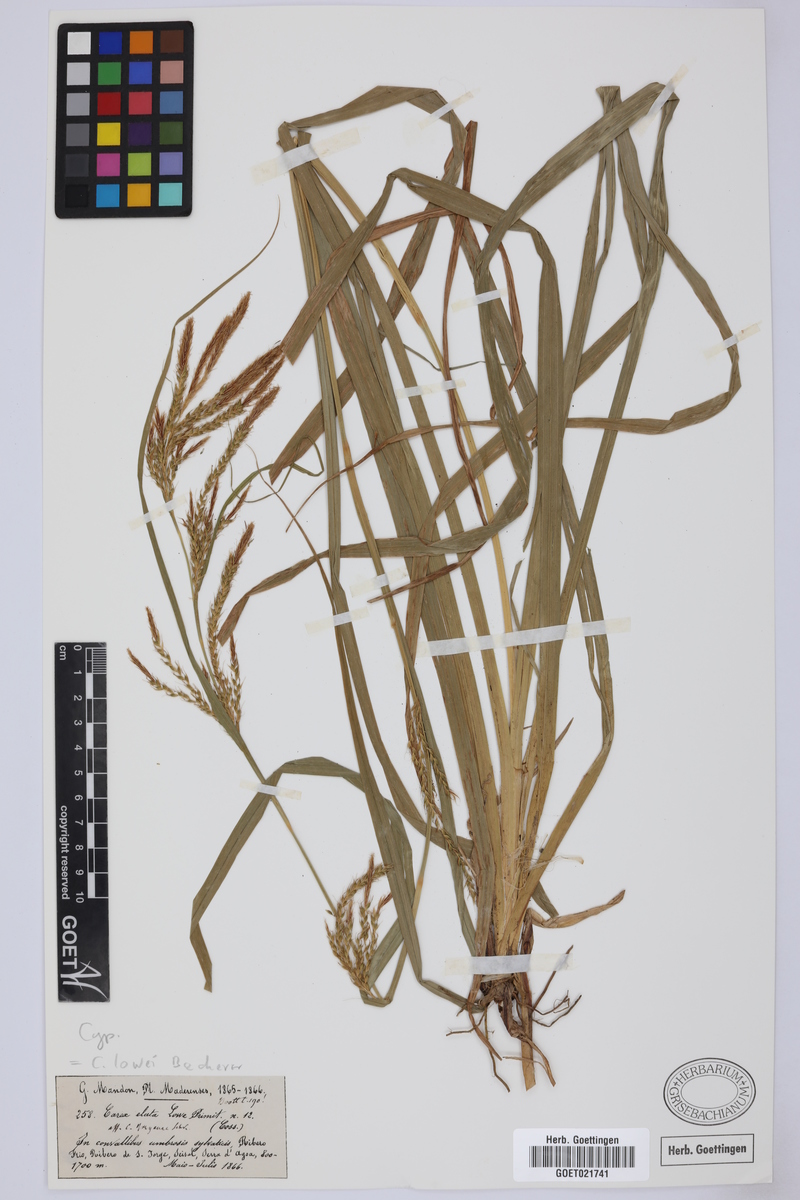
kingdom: Plantae
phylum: Tracheophyta
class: Liliopsida
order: Poales
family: Cyperaceae
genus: Carex
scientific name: Carex lowei
